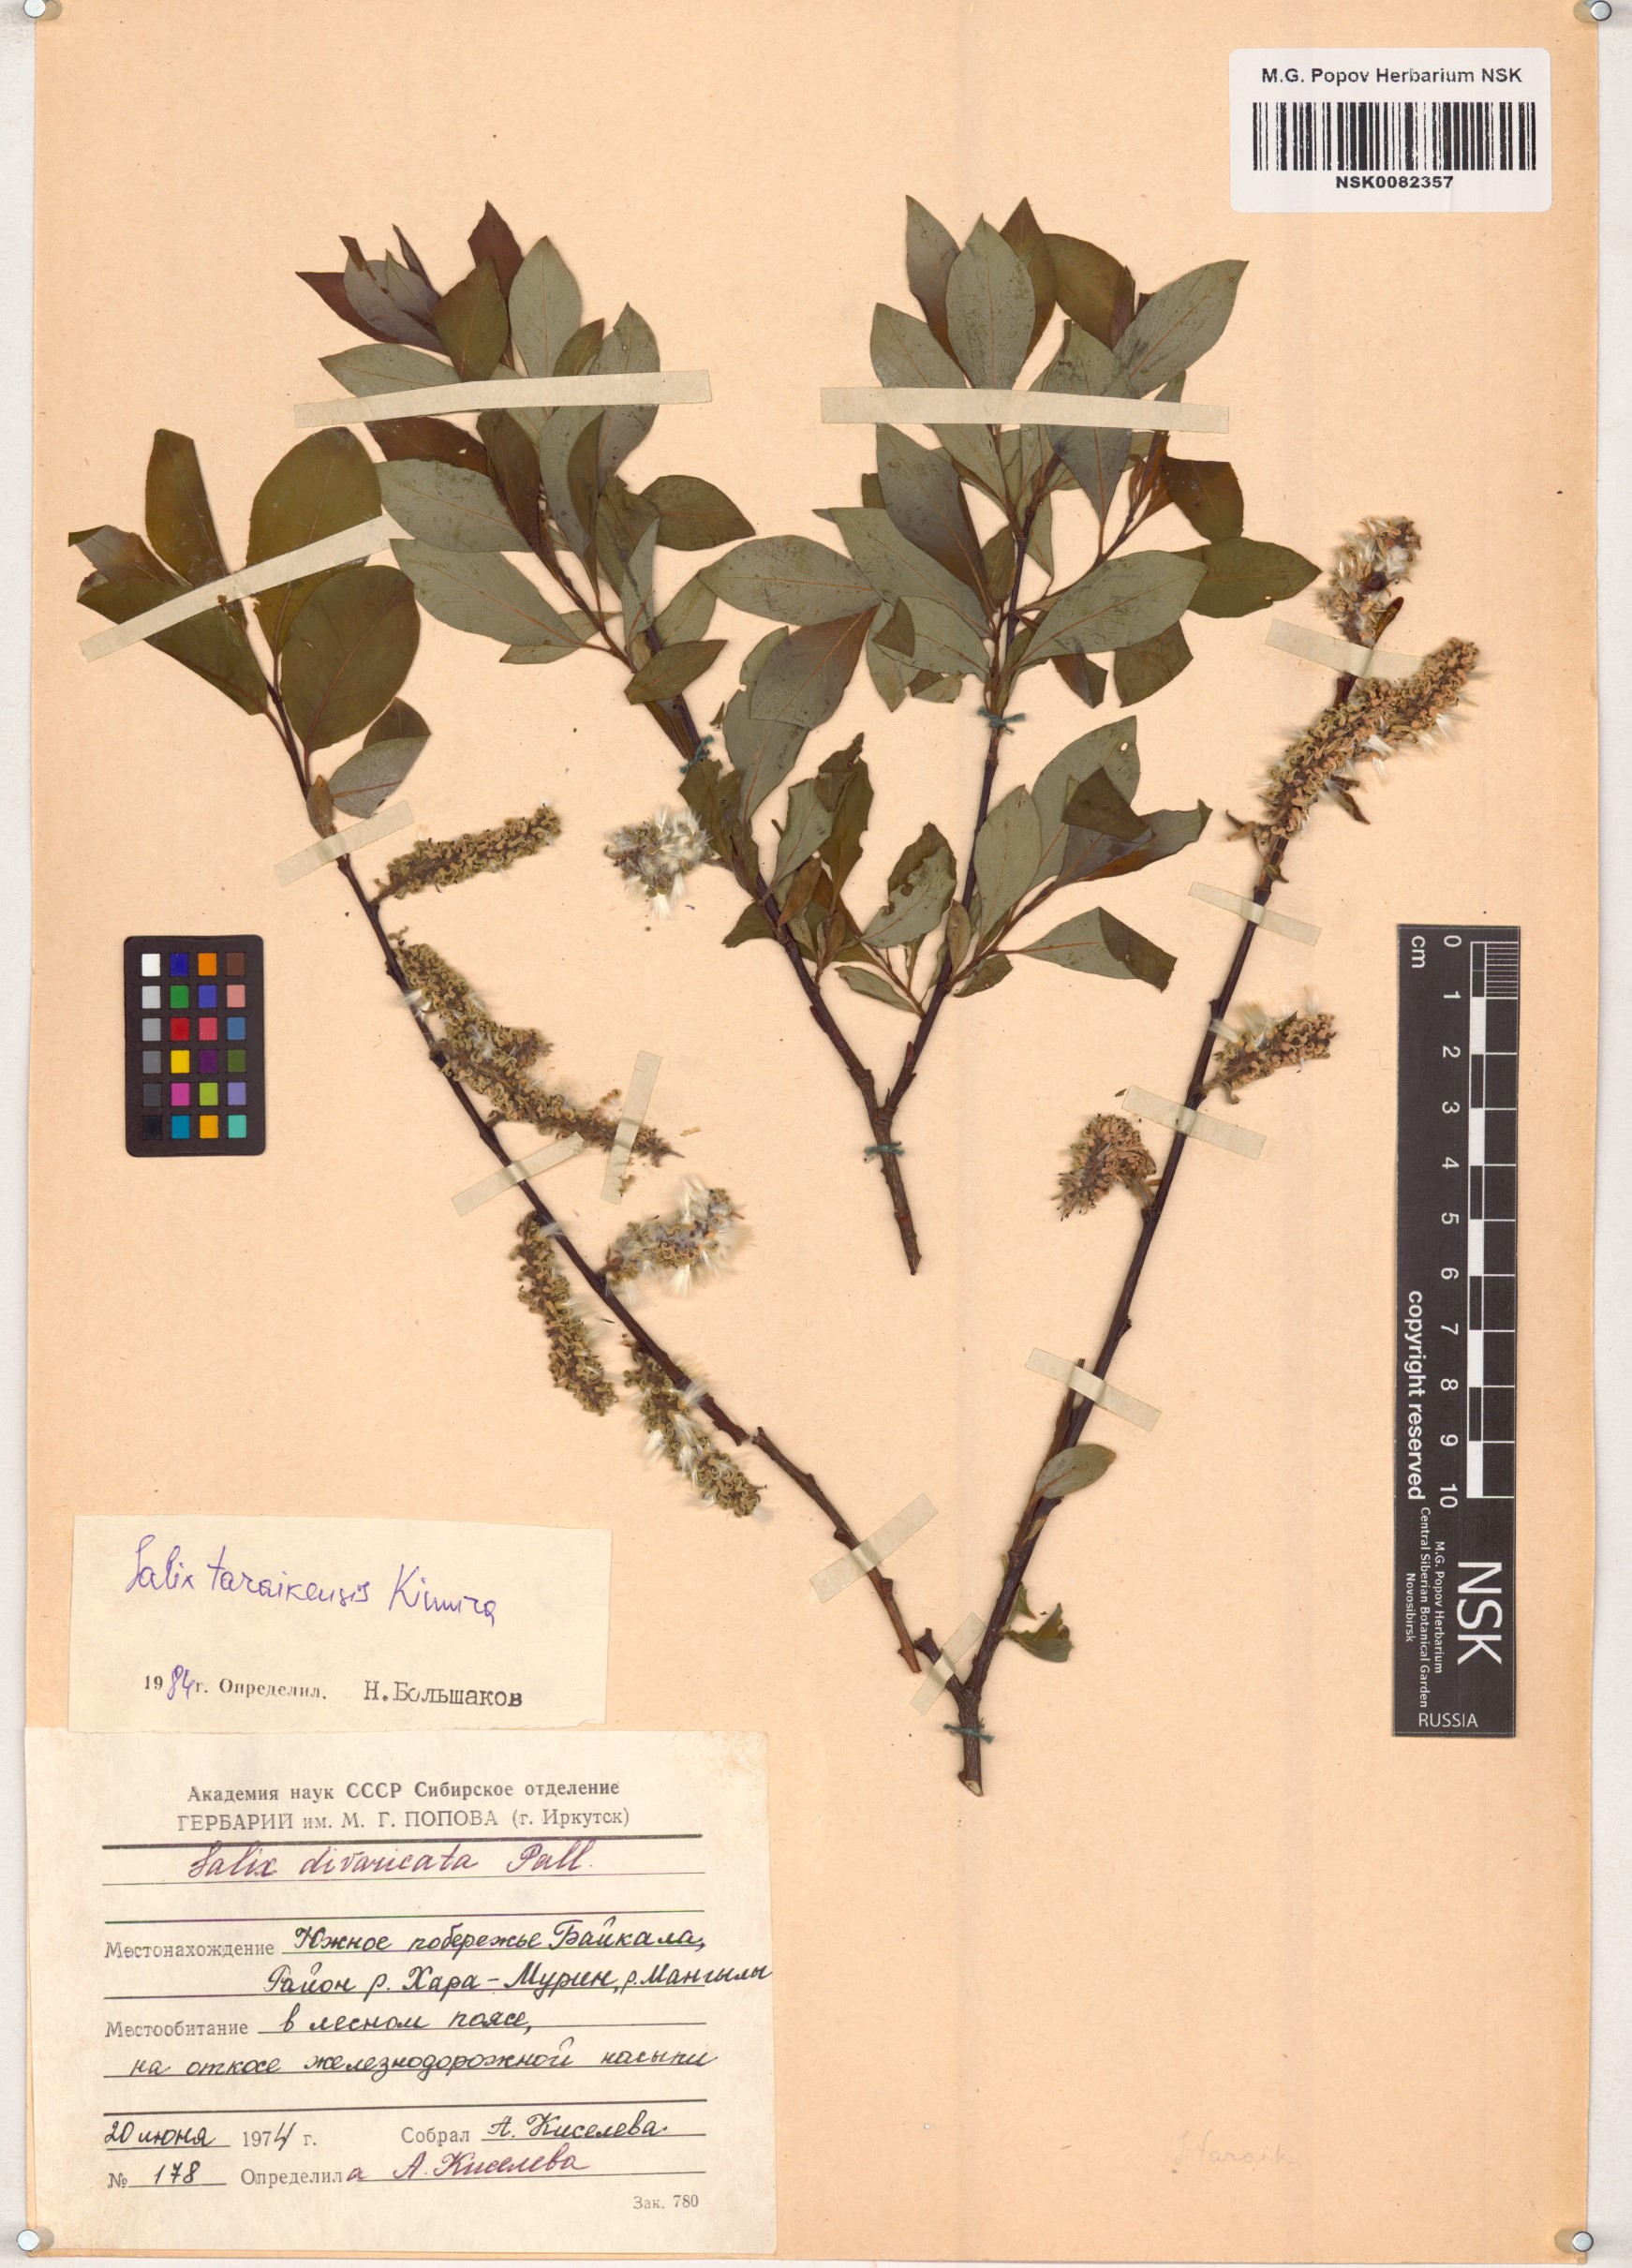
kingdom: Plantae
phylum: Tracheophyta
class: Magnoliopsida
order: Malpighiales
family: Salicaceae
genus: Salix
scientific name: Salix taraikensis
